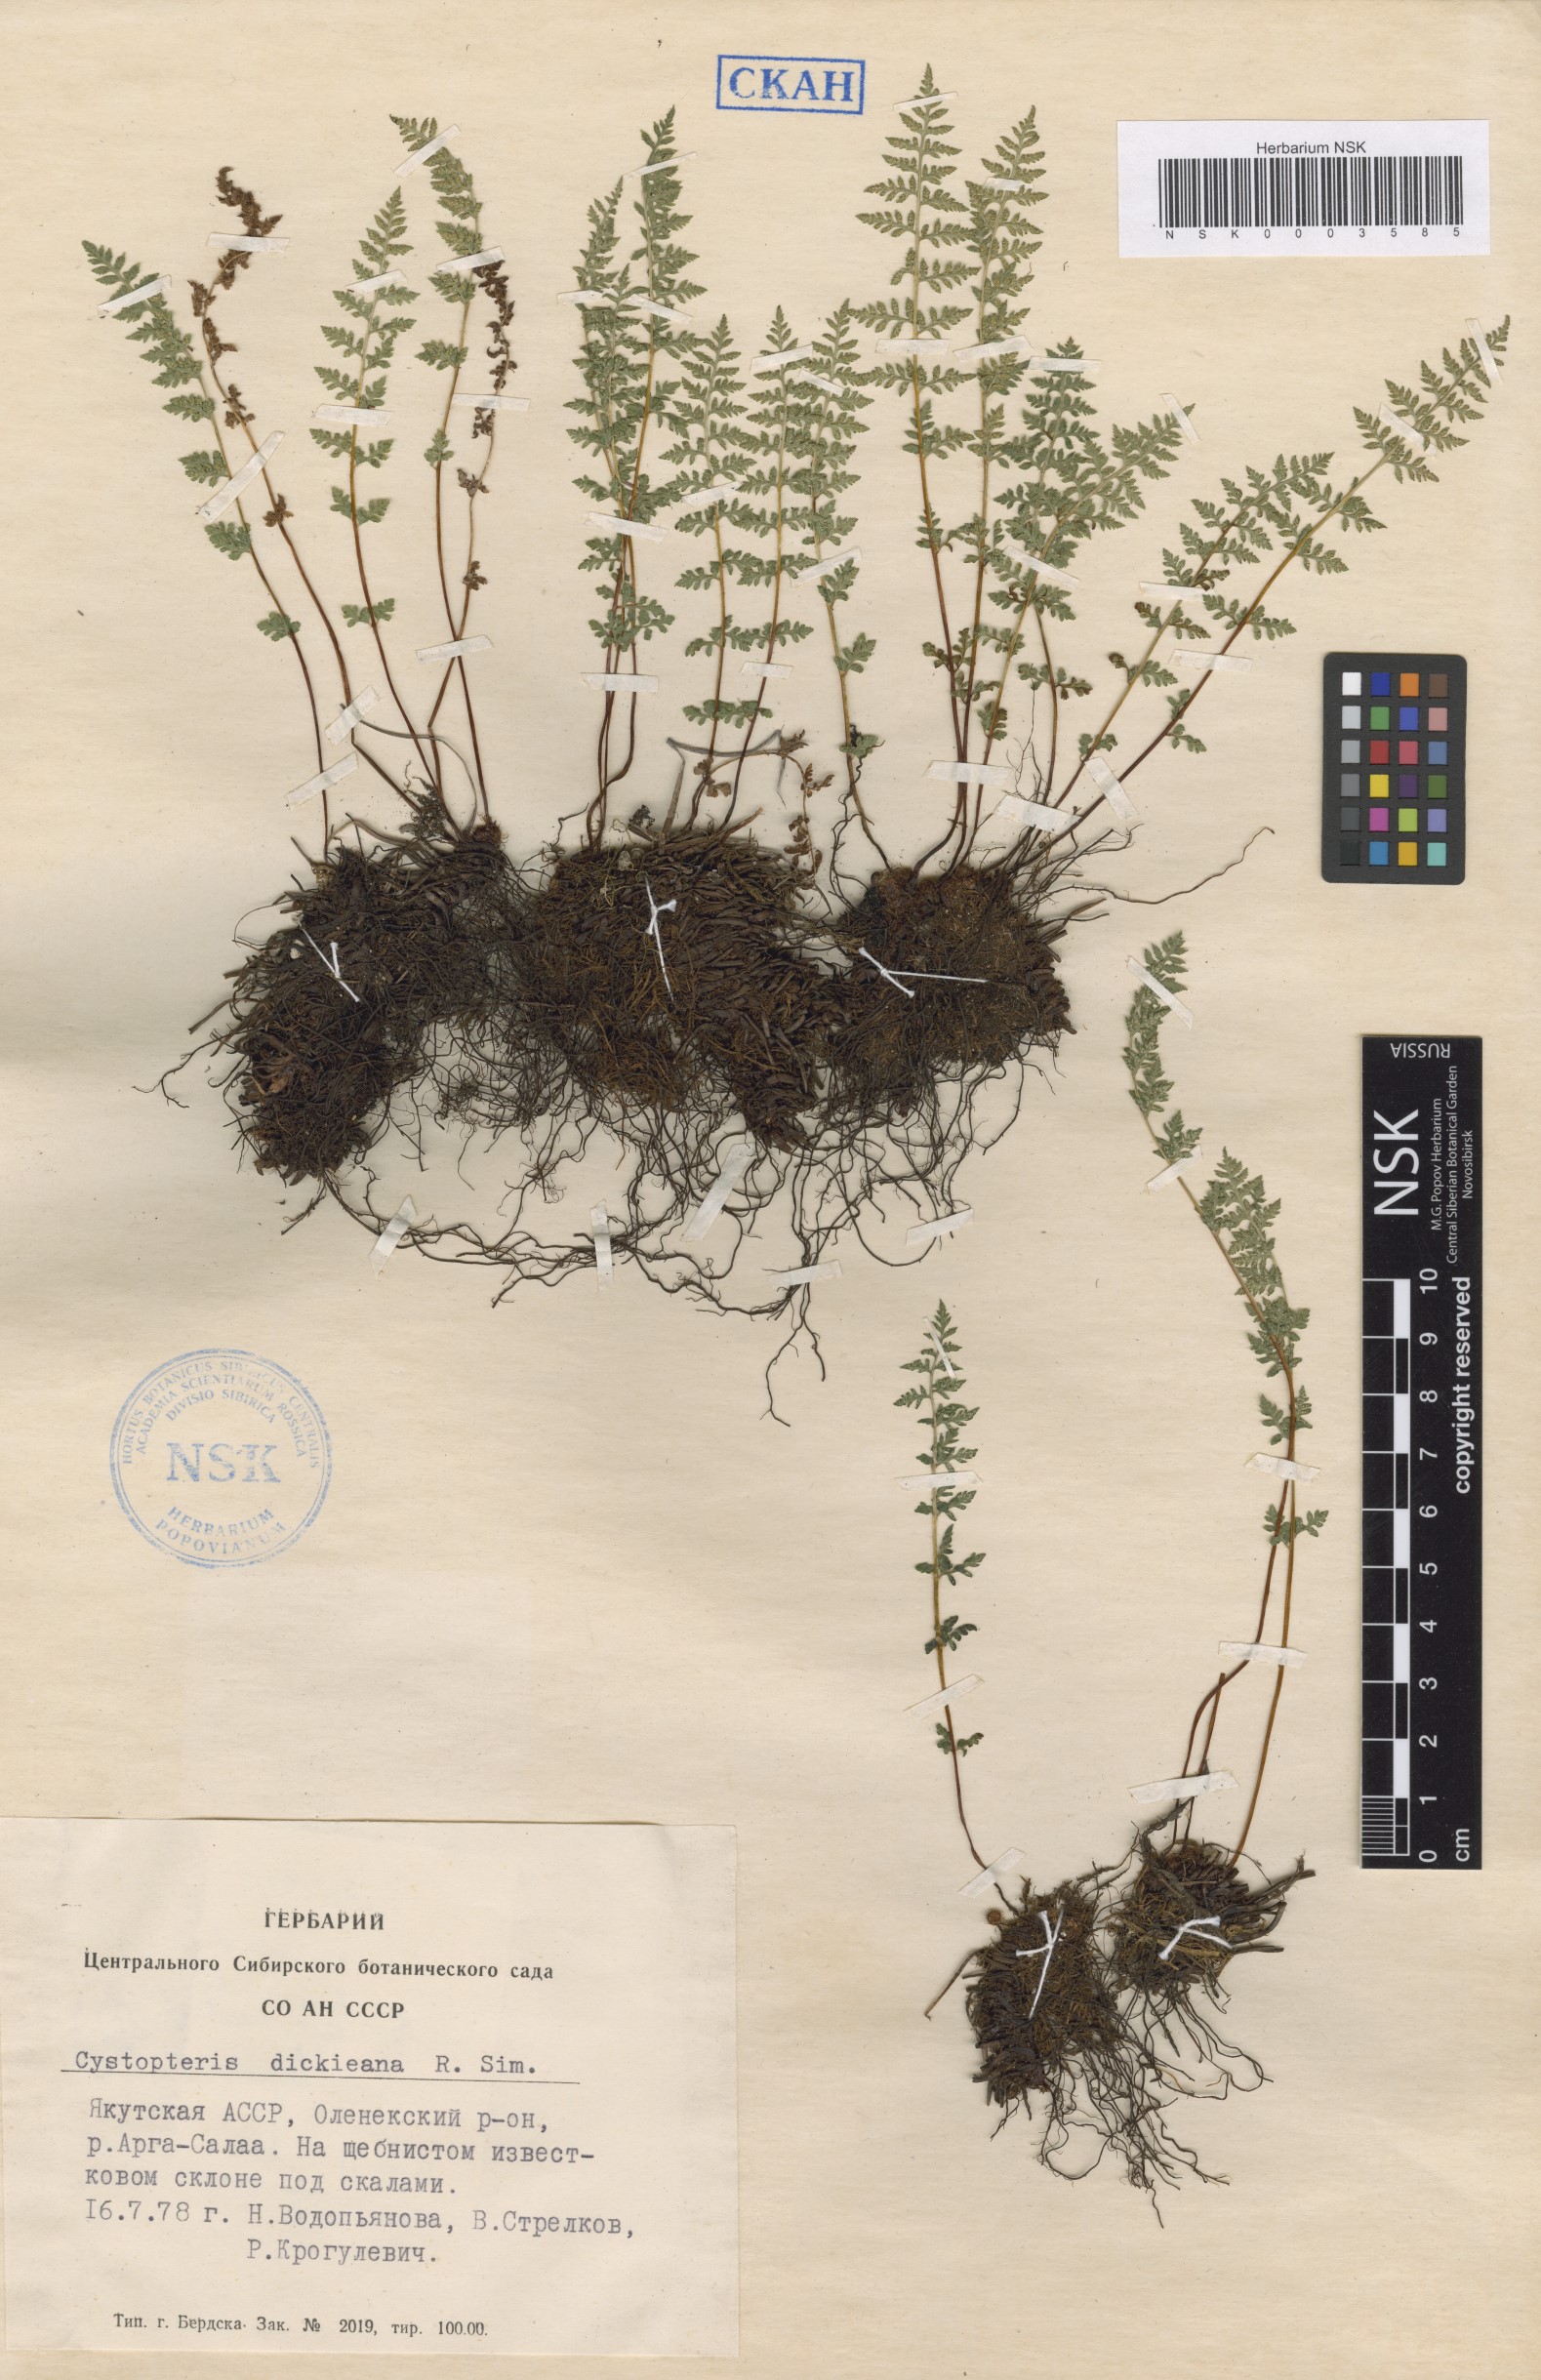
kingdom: Plantae
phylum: Tracheophyta
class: Polypodiopsida
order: Polypodiales
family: Cystopteridaceae
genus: Cystopteris
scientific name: Cystopteris dickieana
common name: Dickie's bladder-fern
